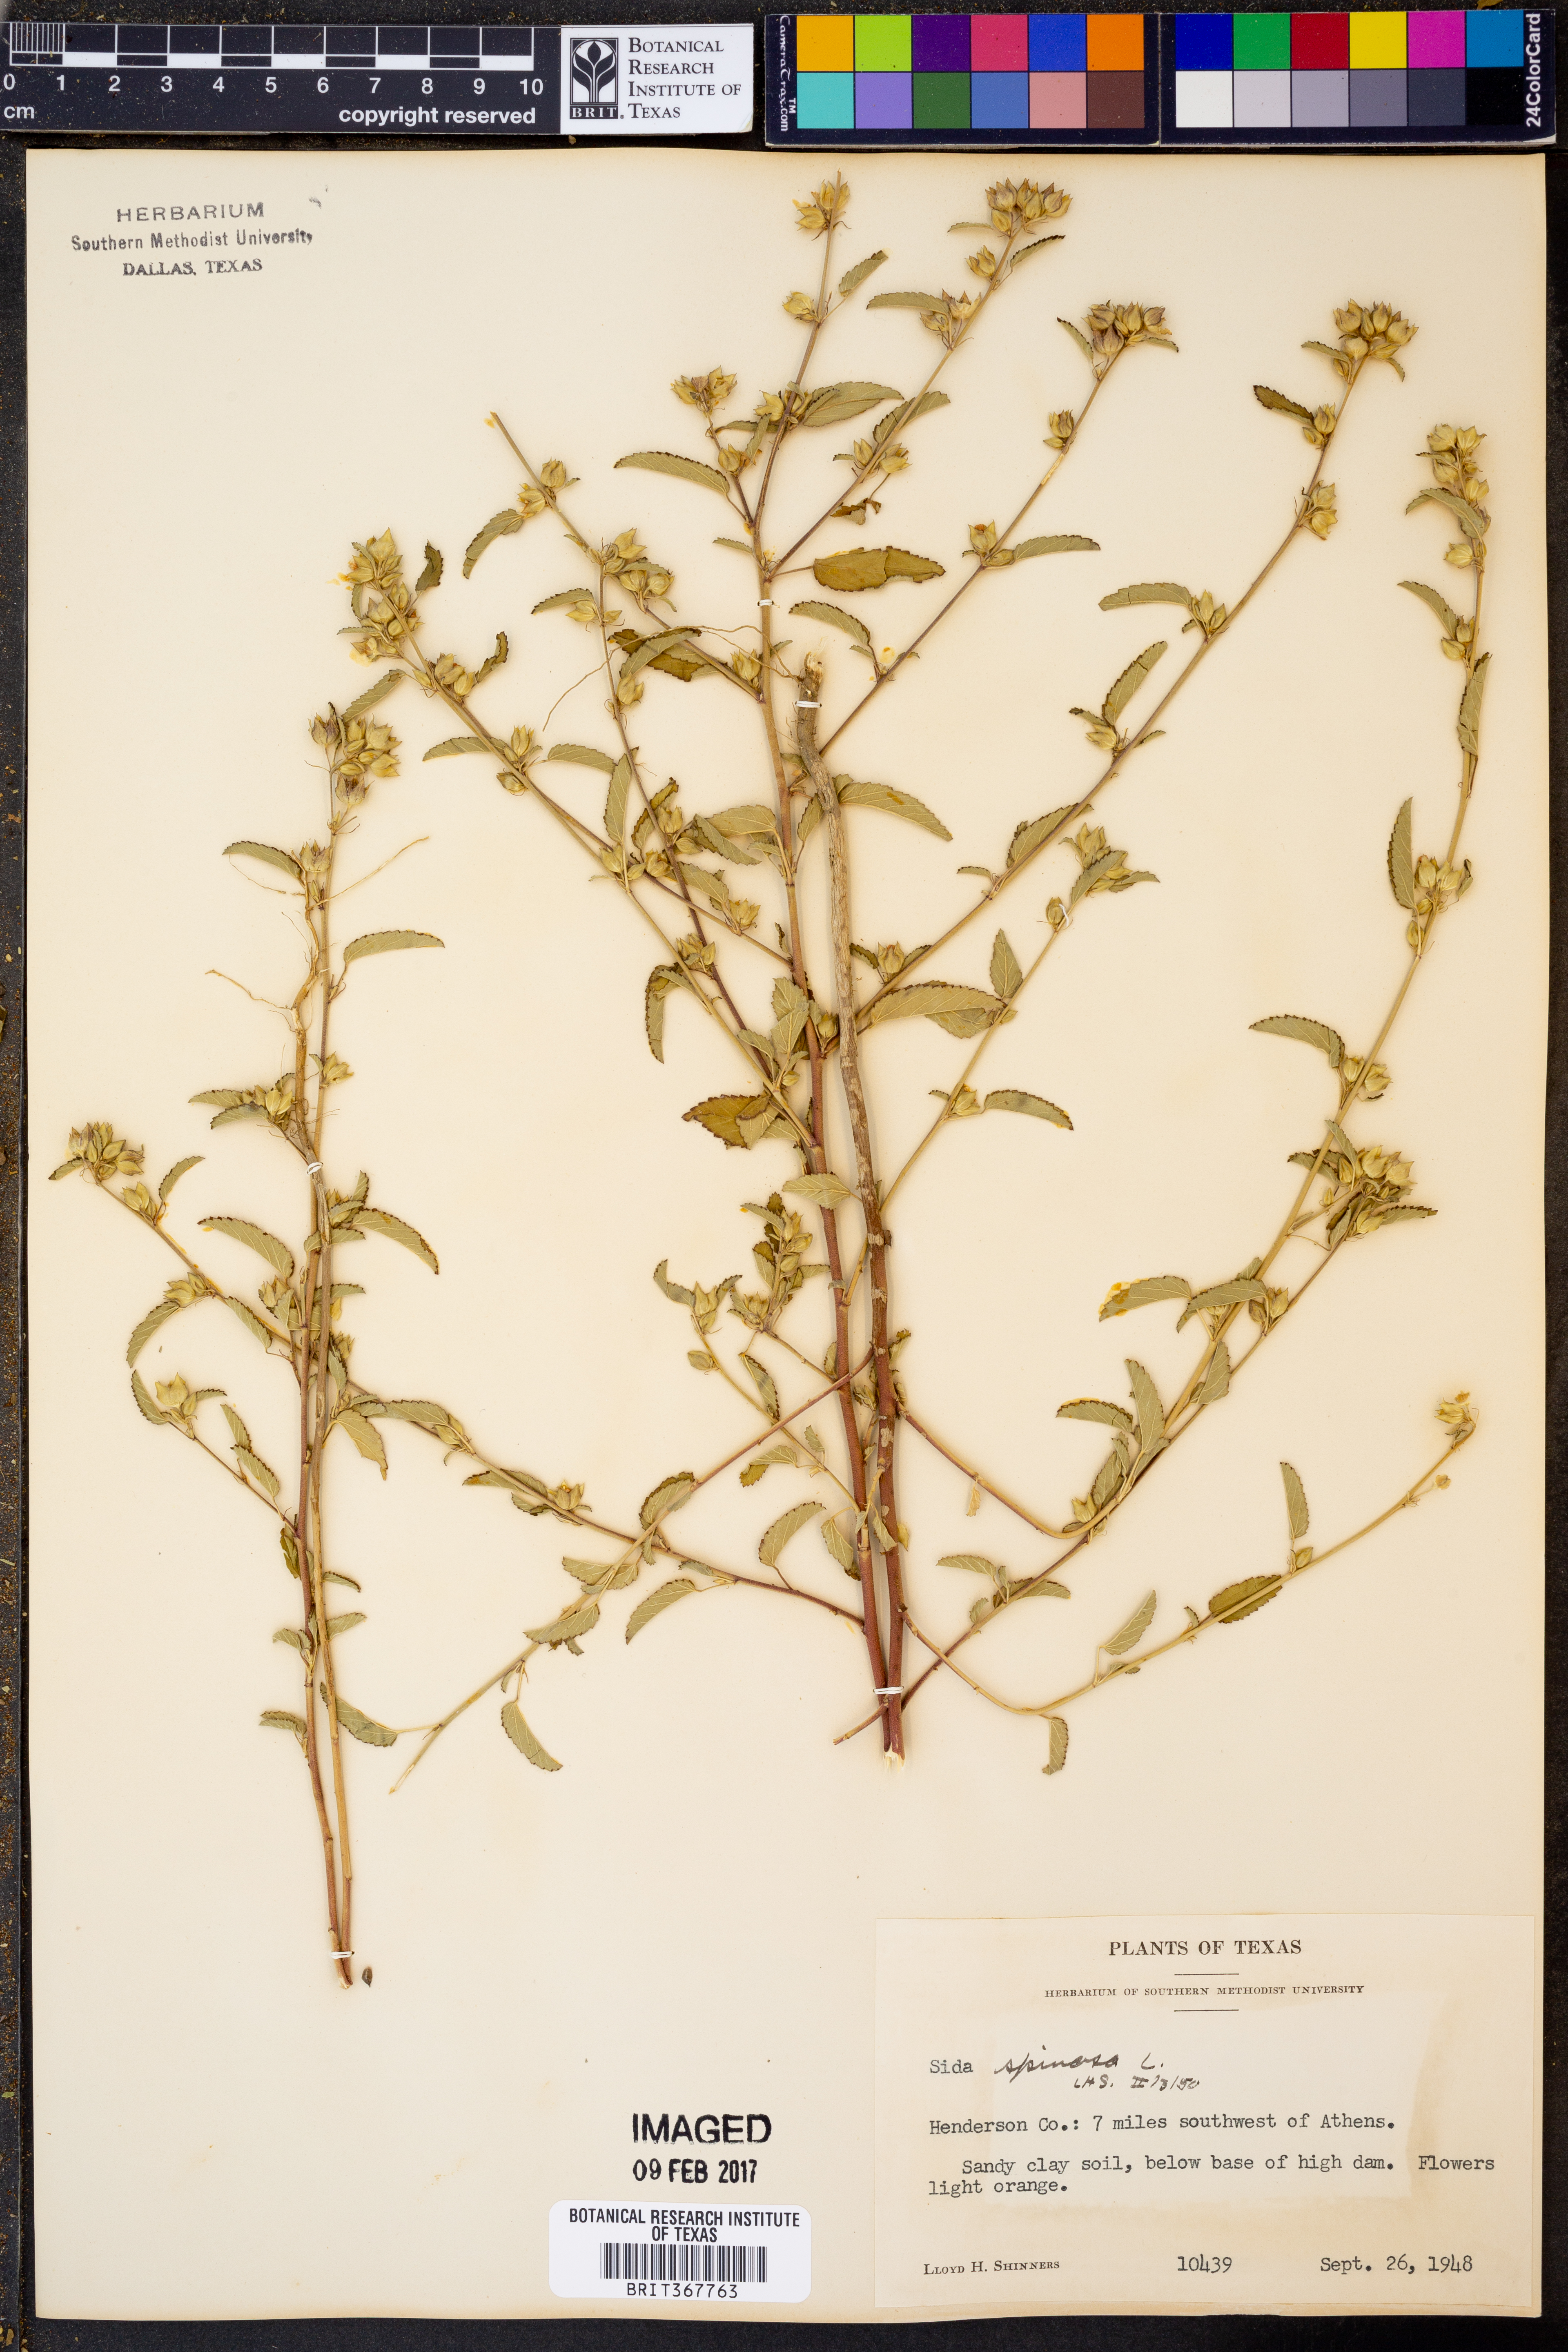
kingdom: Plantae
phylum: Tracheophyta
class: Magnoliopsida
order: Malvales
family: Malvaceae
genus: Sida
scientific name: Sida spinosa
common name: Prickly fanpetals
